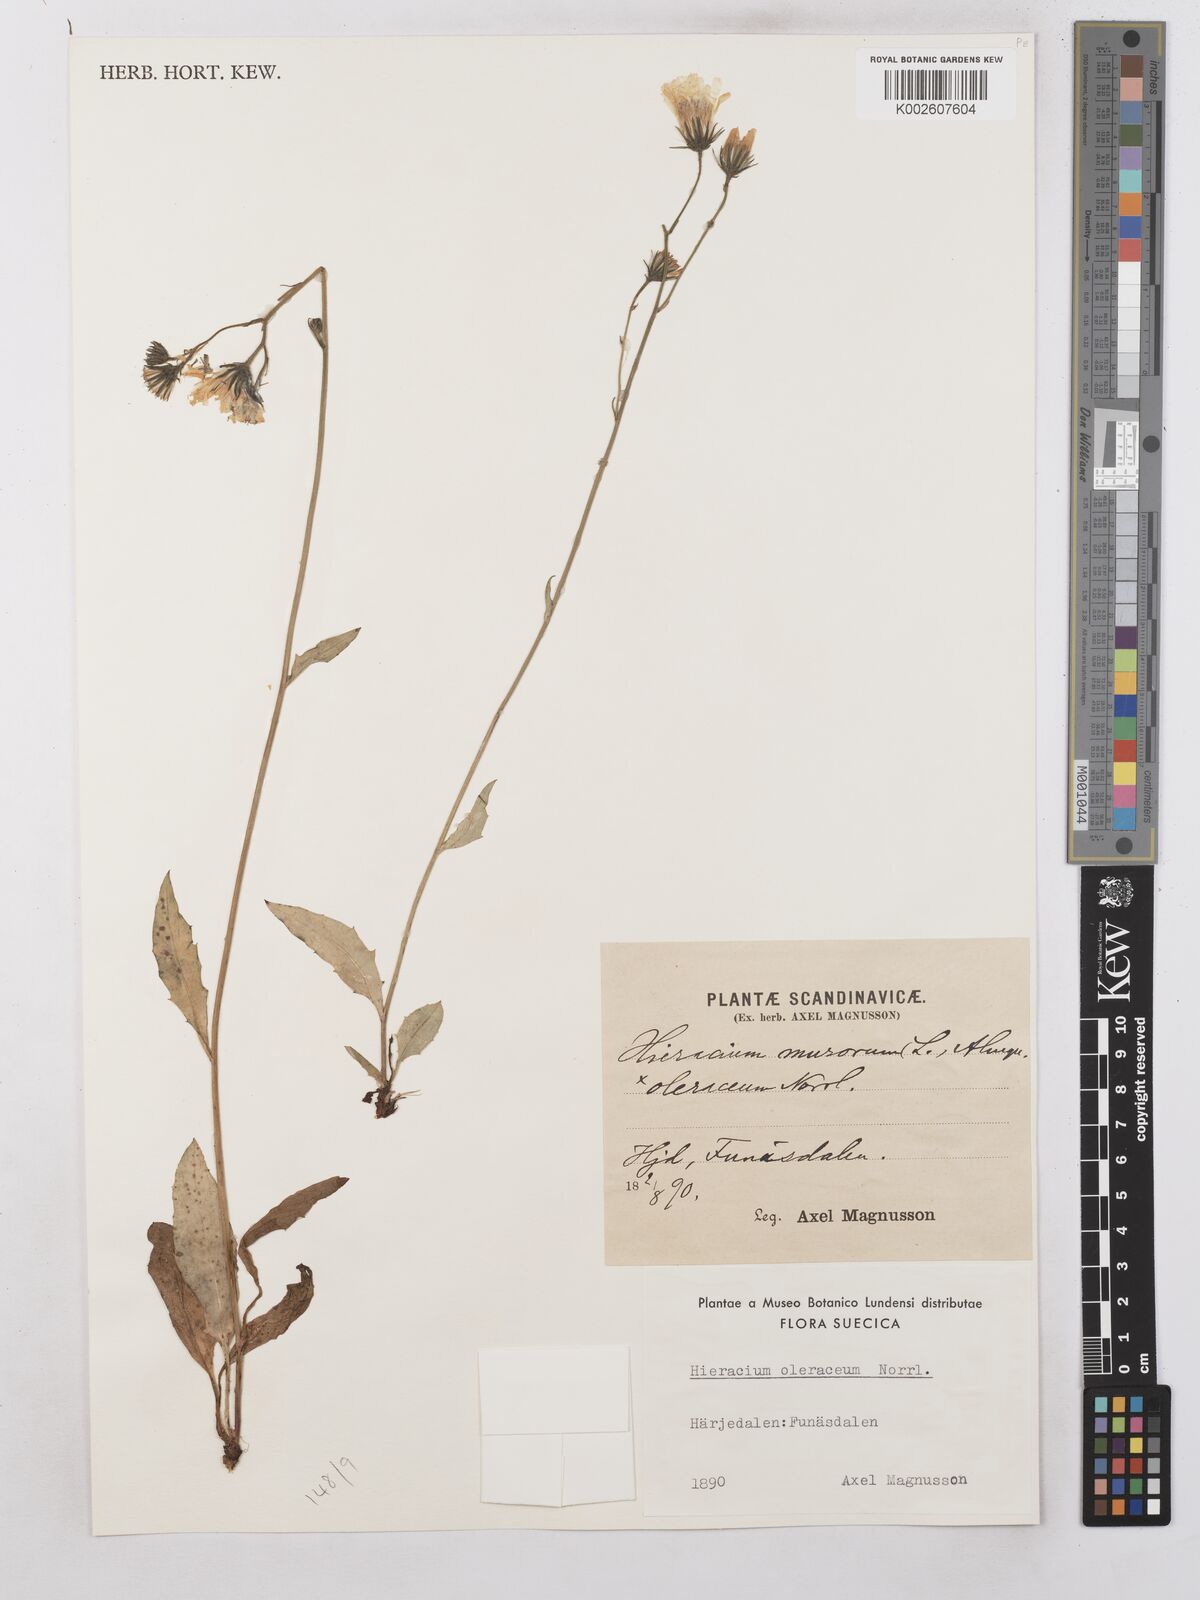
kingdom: Plantae
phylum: Tracheophyta
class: Magnoliopsida
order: Asterales
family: Asteraceae
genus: Hieracium
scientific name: Hieracium subramosum
